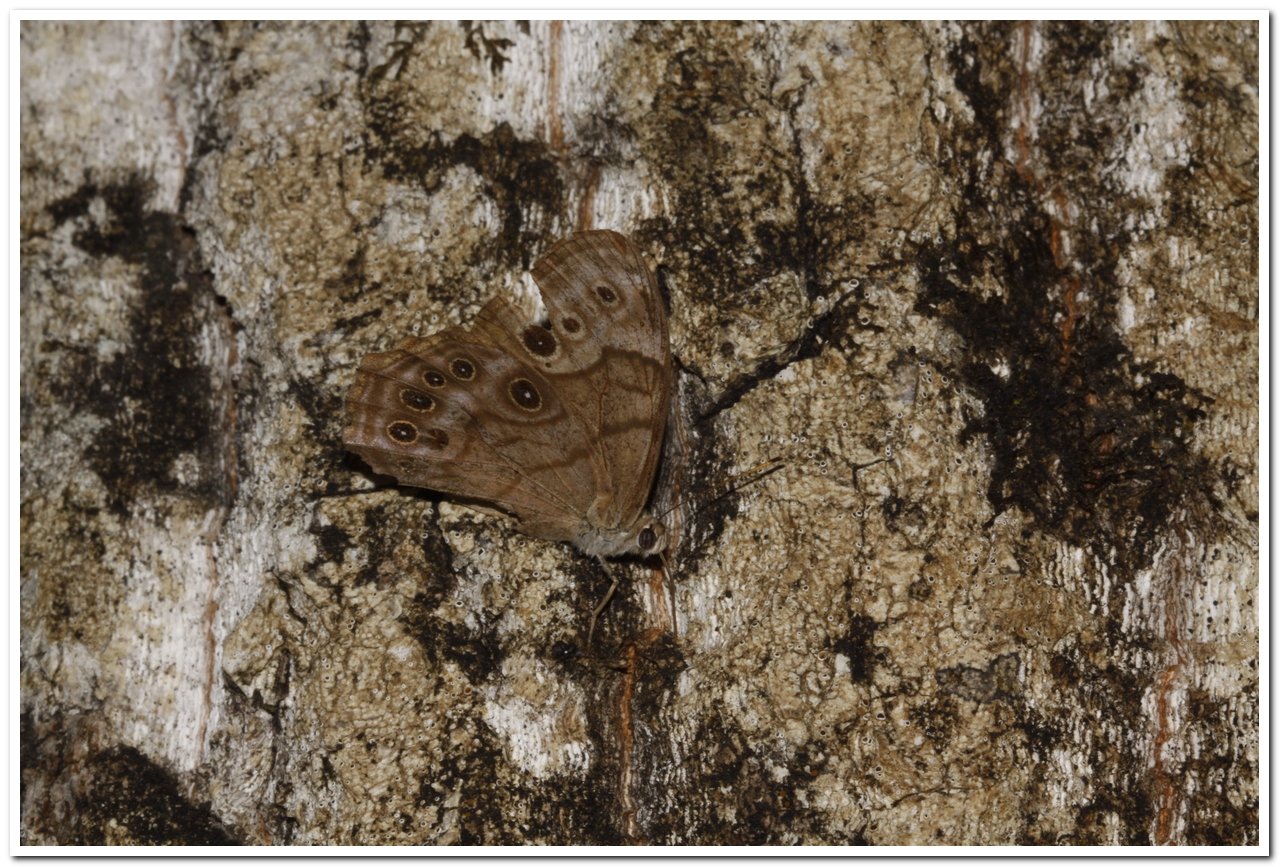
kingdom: Animalia
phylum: Arthropoda
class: Insecta
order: Lepidoptera
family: Nymphalidae
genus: Lethe
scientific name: Lethe anthedon
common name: Northern Pearly-Eye
